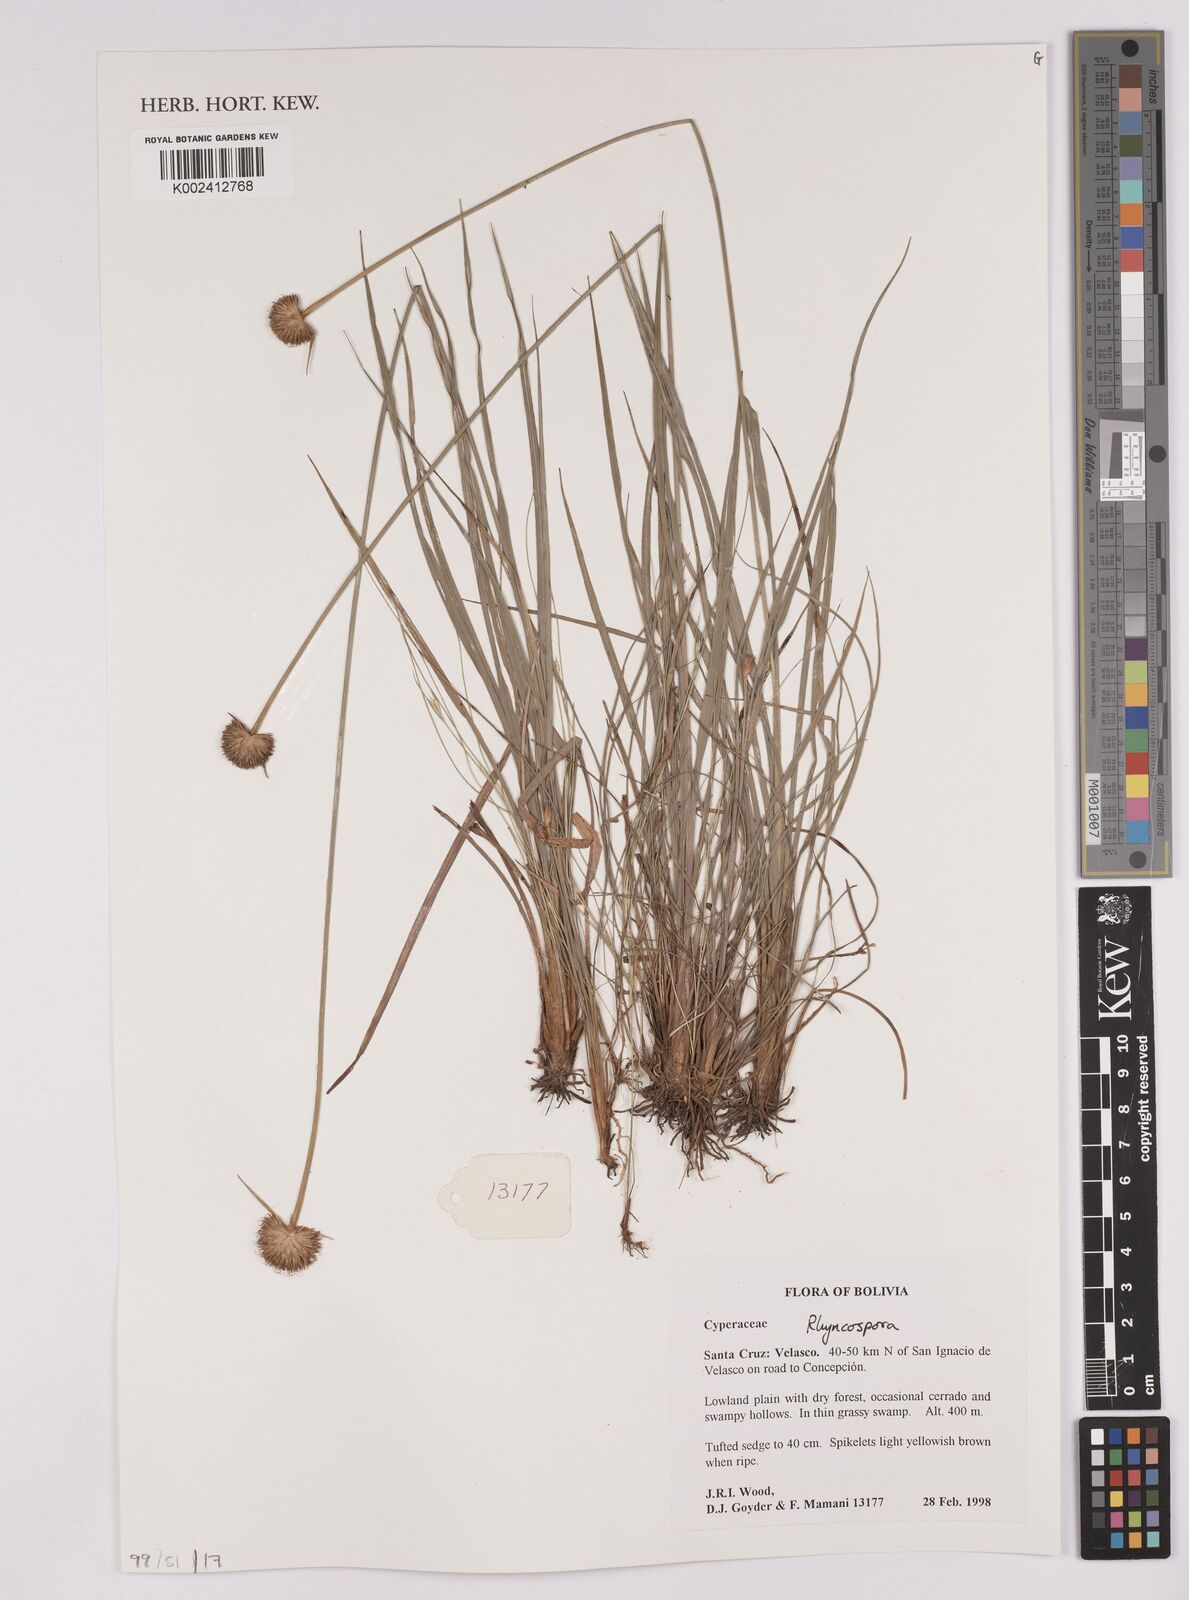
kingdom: Plantae
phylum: Tracheophyta
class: Liliopsida
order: Poales
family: Cyperaceae
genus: Rhynchospora
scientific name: Rhynchospora
